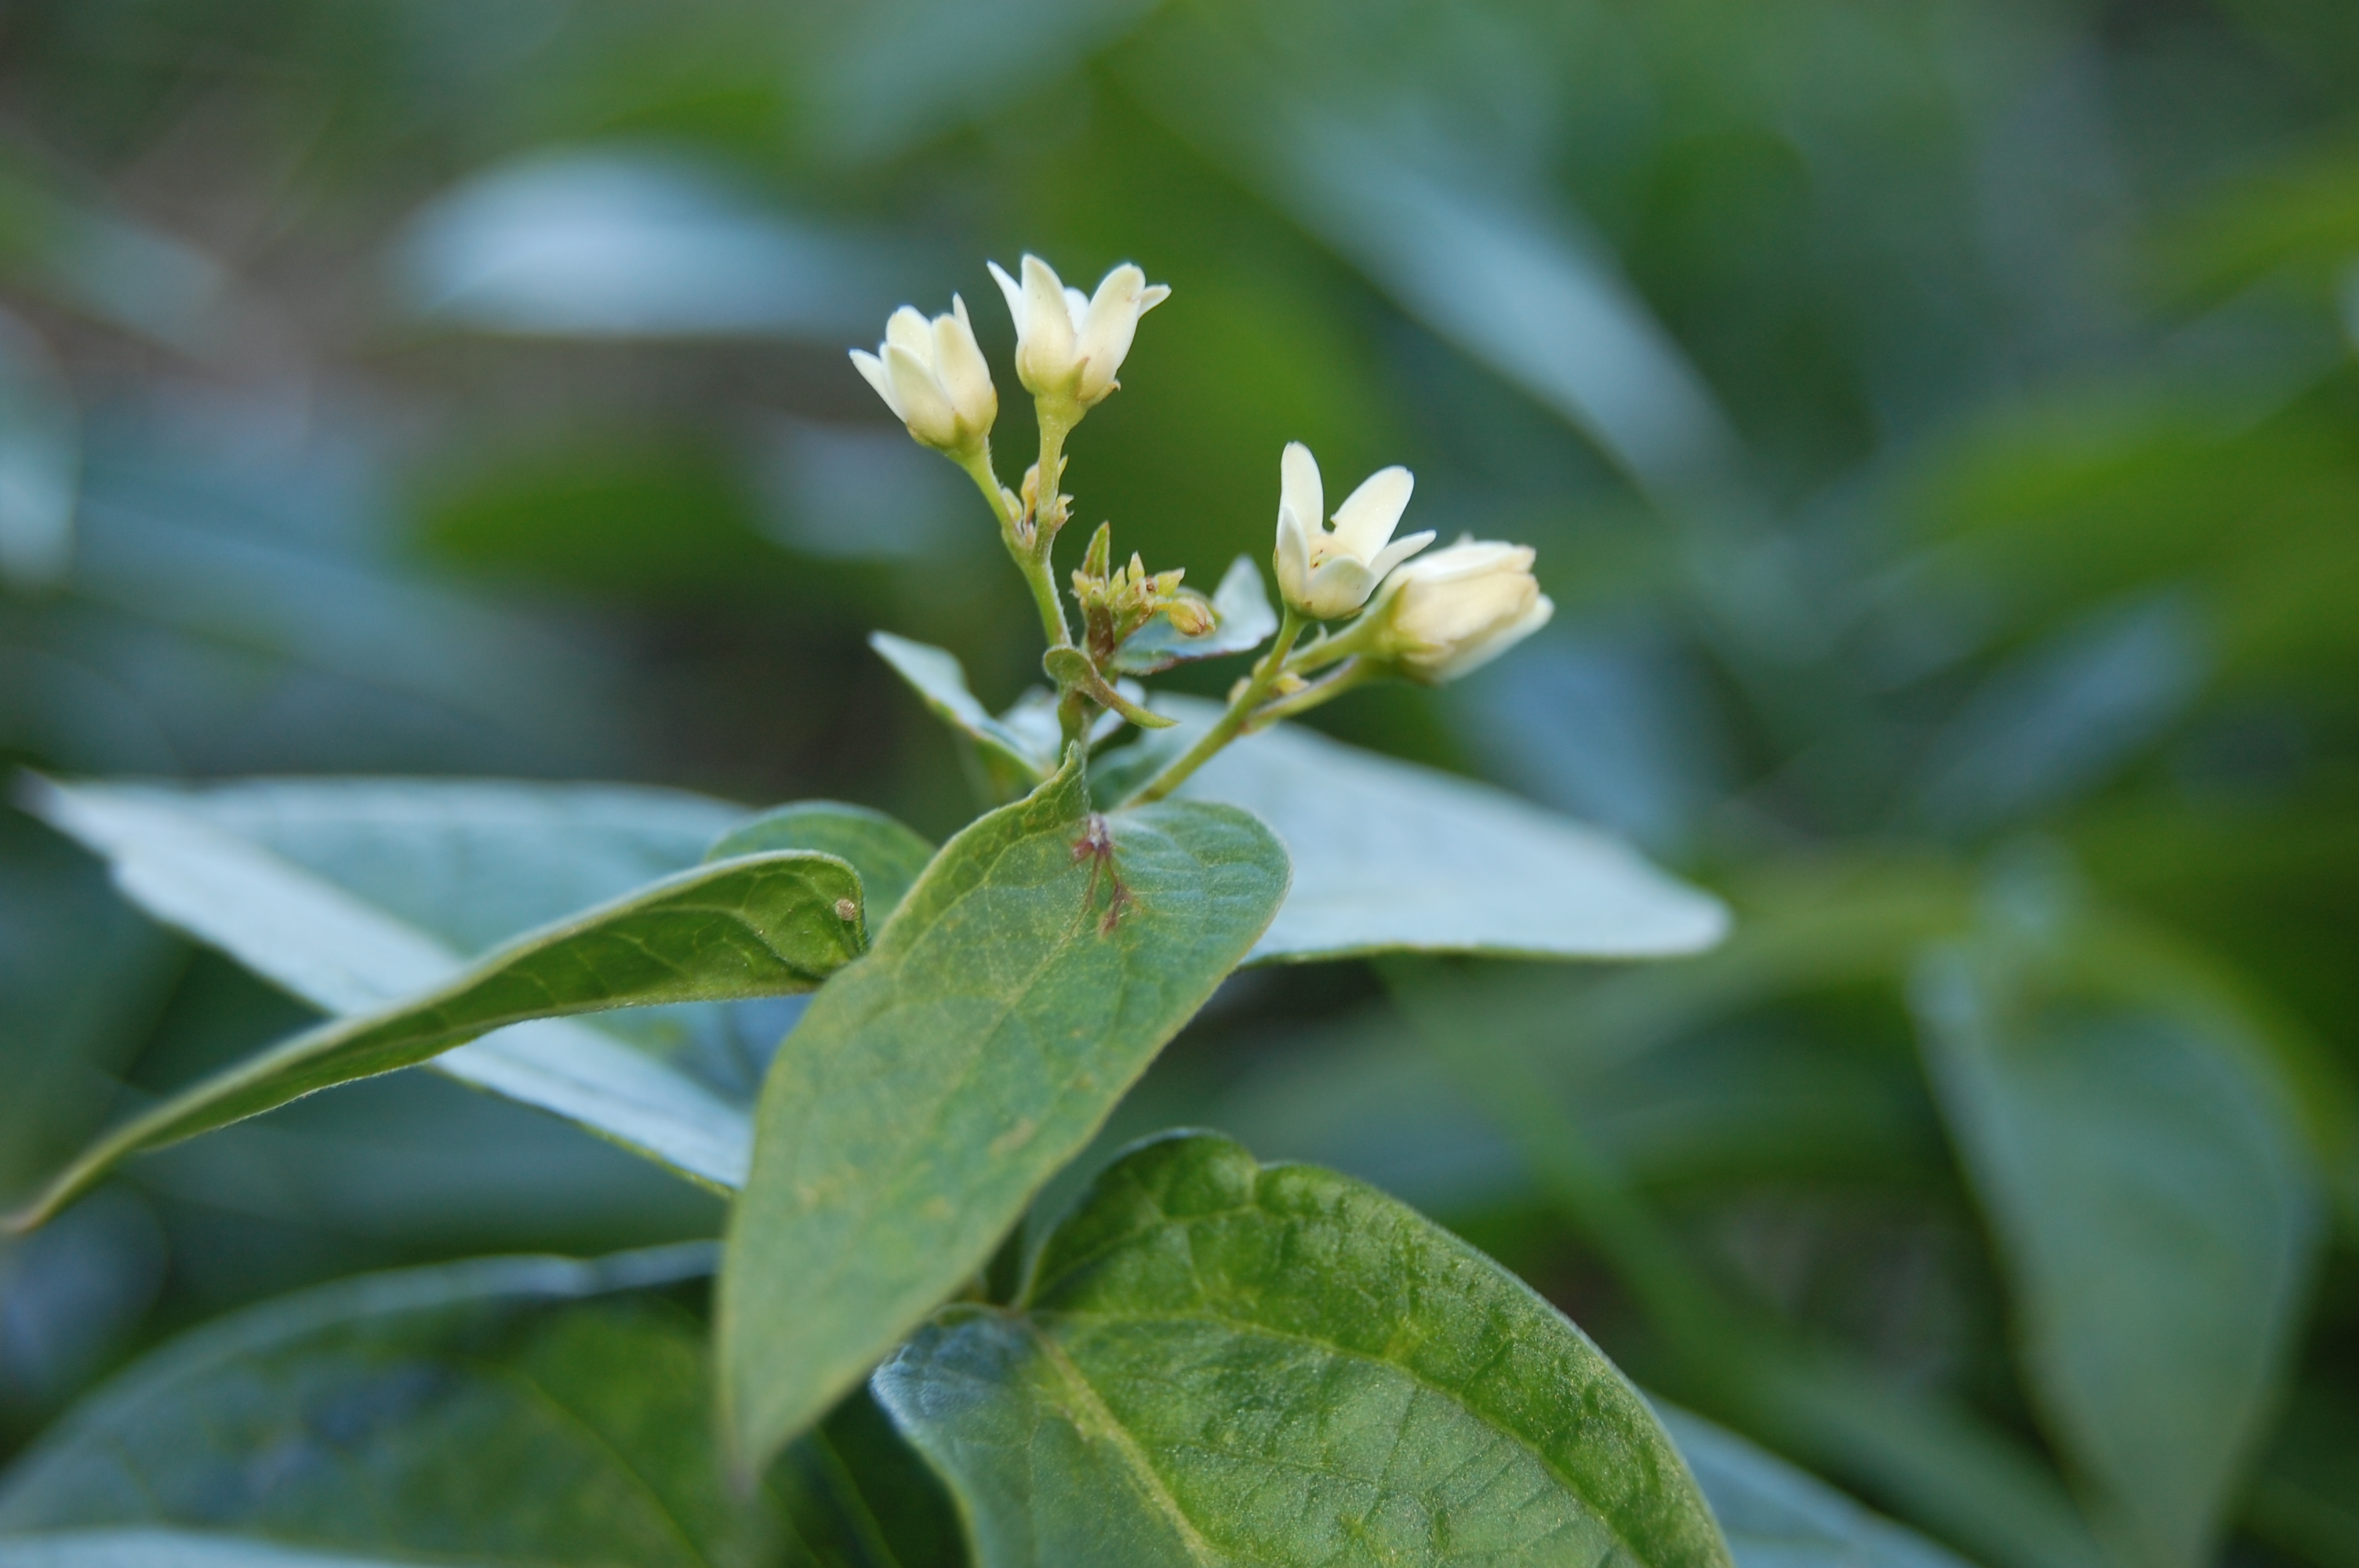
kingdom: Plantae
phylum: Tracheophyta
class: Magnoliopsida
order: Gentianales
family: Apocynaceae
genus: Vincetoxicum
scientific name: Vincetoxicum hirundinaria
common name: White swallowwort
